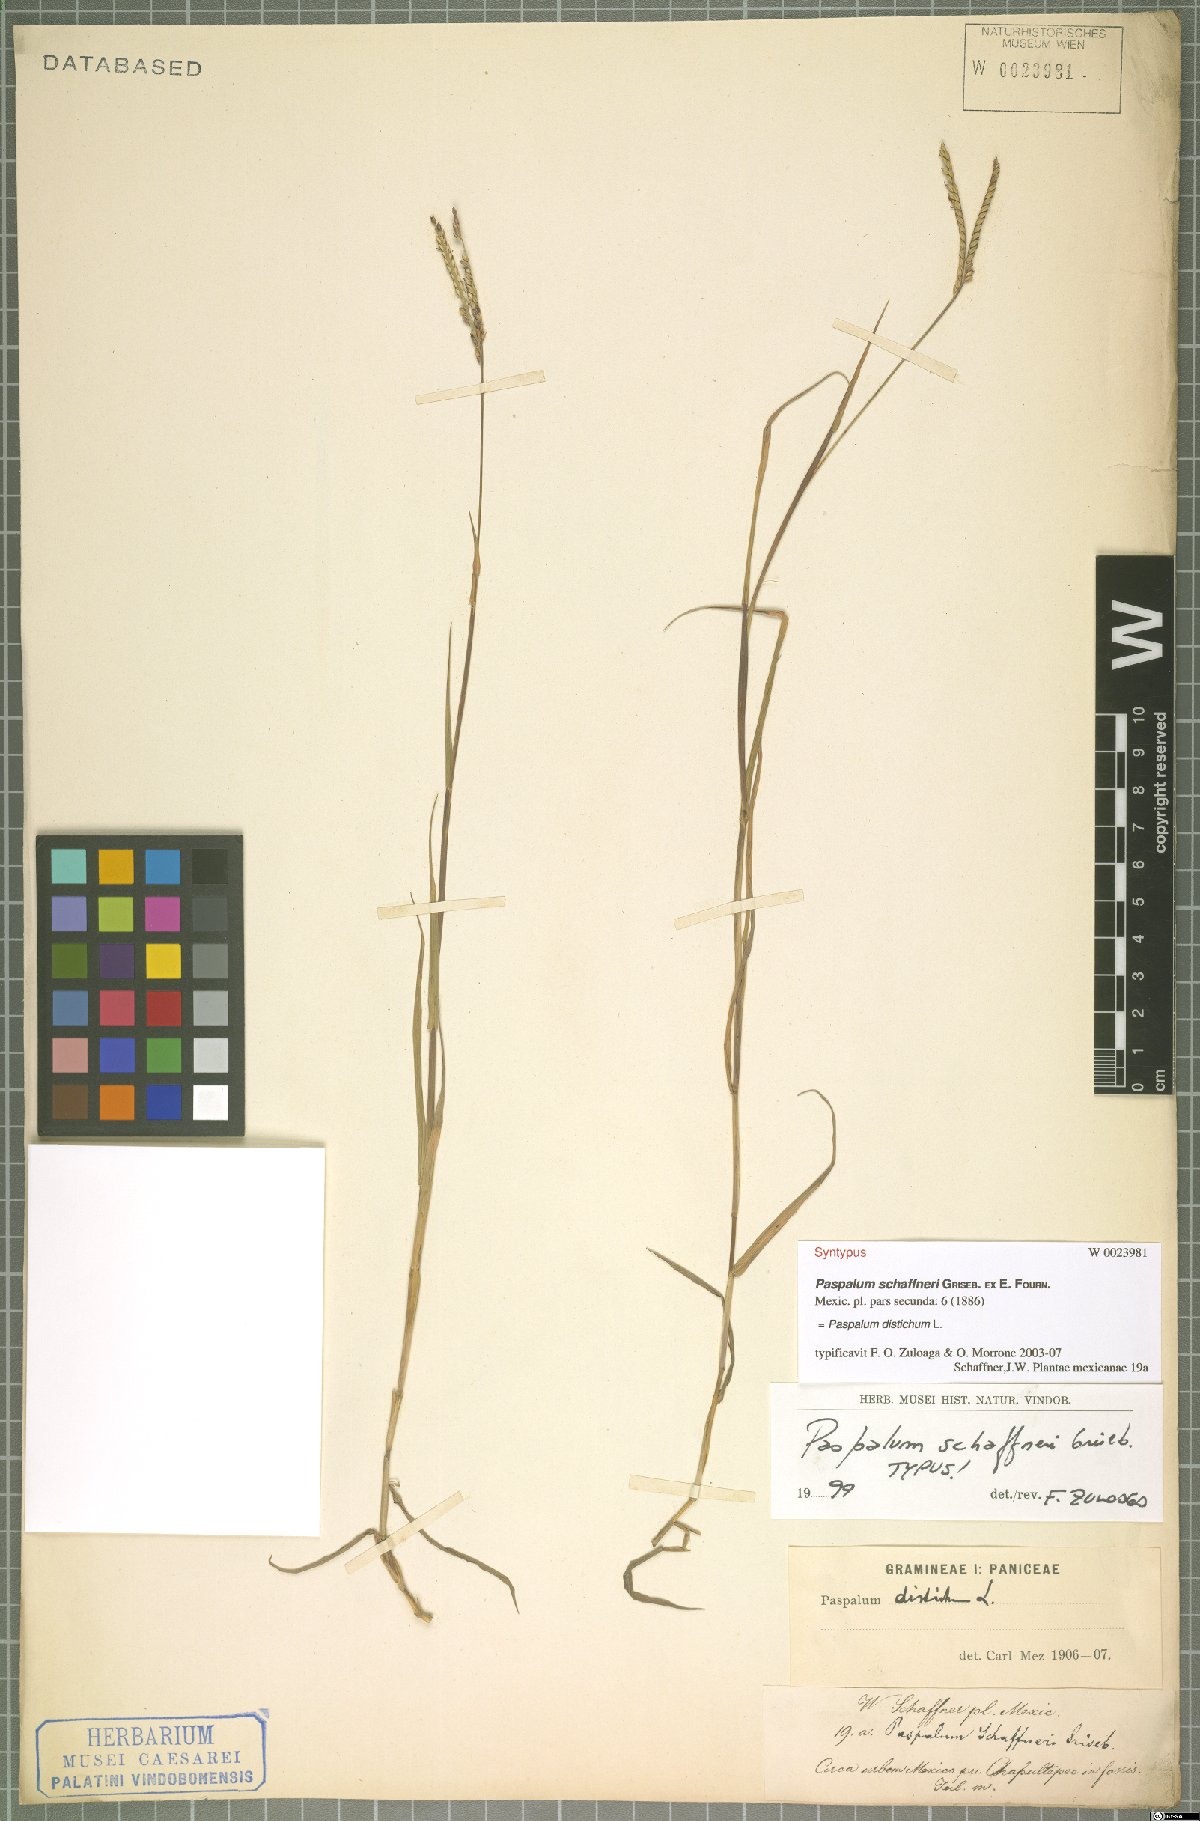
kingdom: Plantae
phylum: Tracheophyta
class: Liliopsida
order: Poales
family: Poaceae
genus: Paspalum
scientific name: Paspalum distichum
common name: Knotgrass
